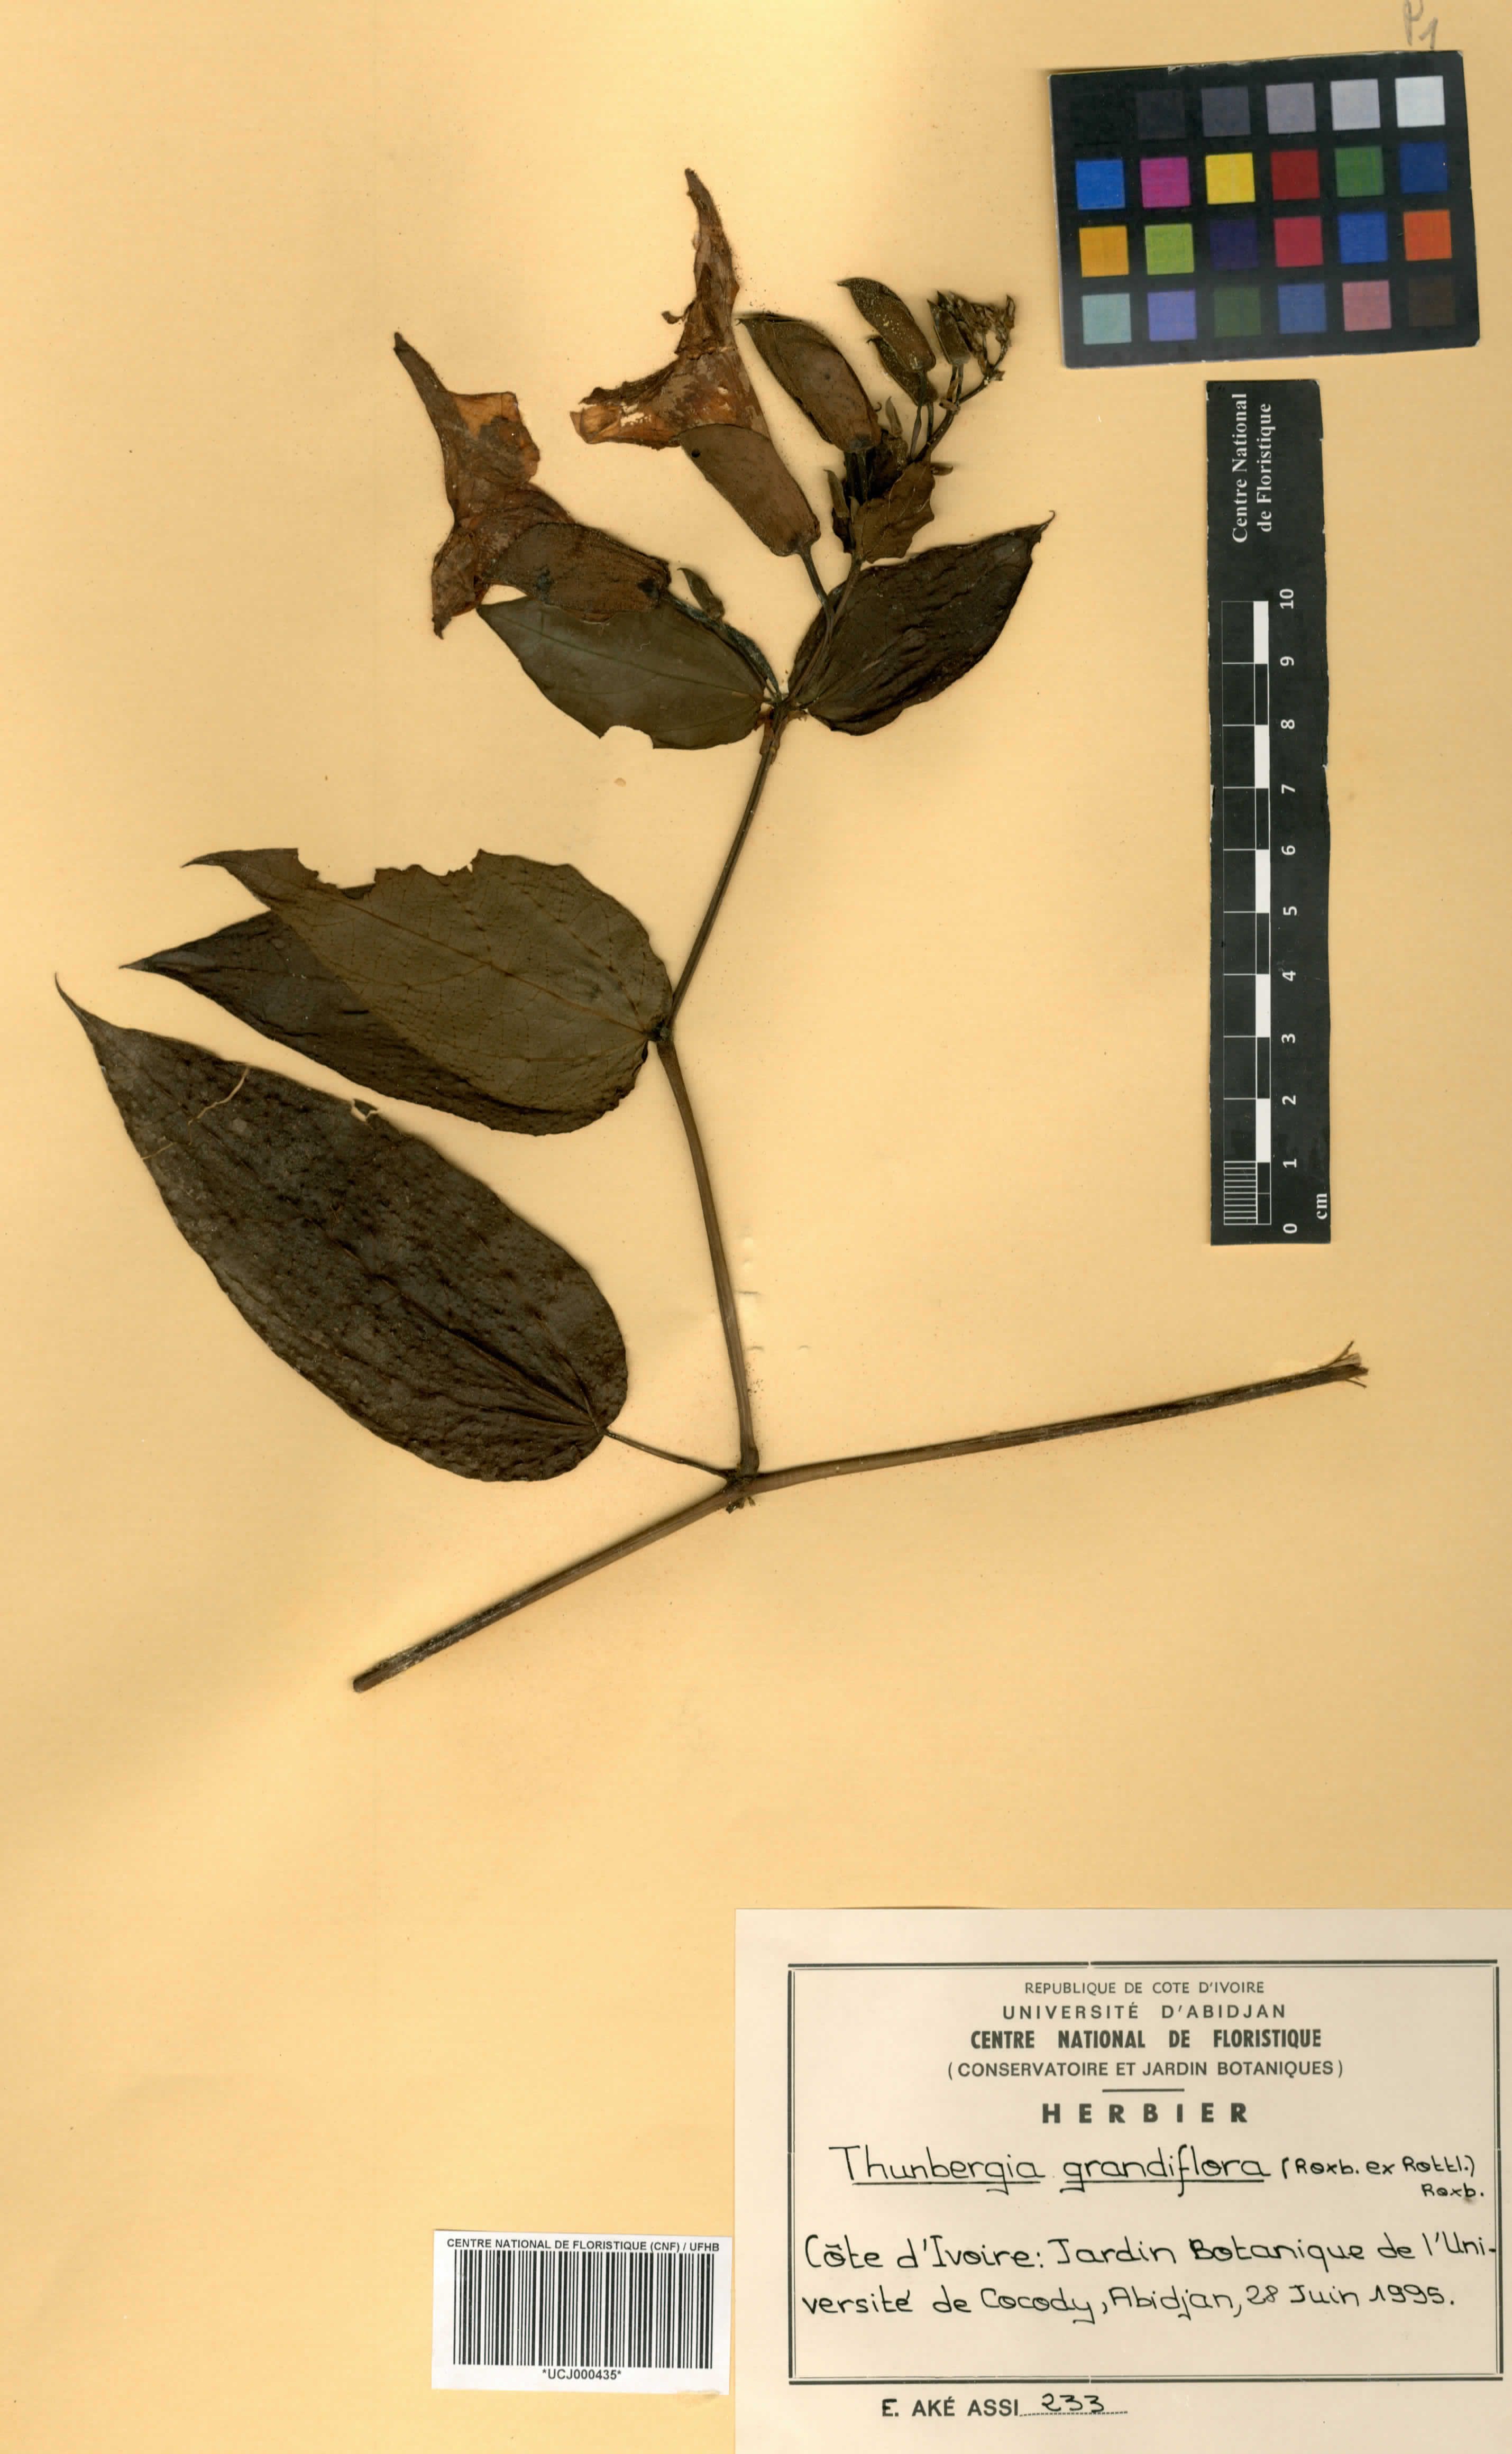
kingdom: Plantae
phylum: Tracheophyta
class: Magnoliopsida
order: Lamiales
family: Acanthaceae
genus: Thunbergia
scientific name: Thunbergia grandiflora
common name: Bengal trumpet
